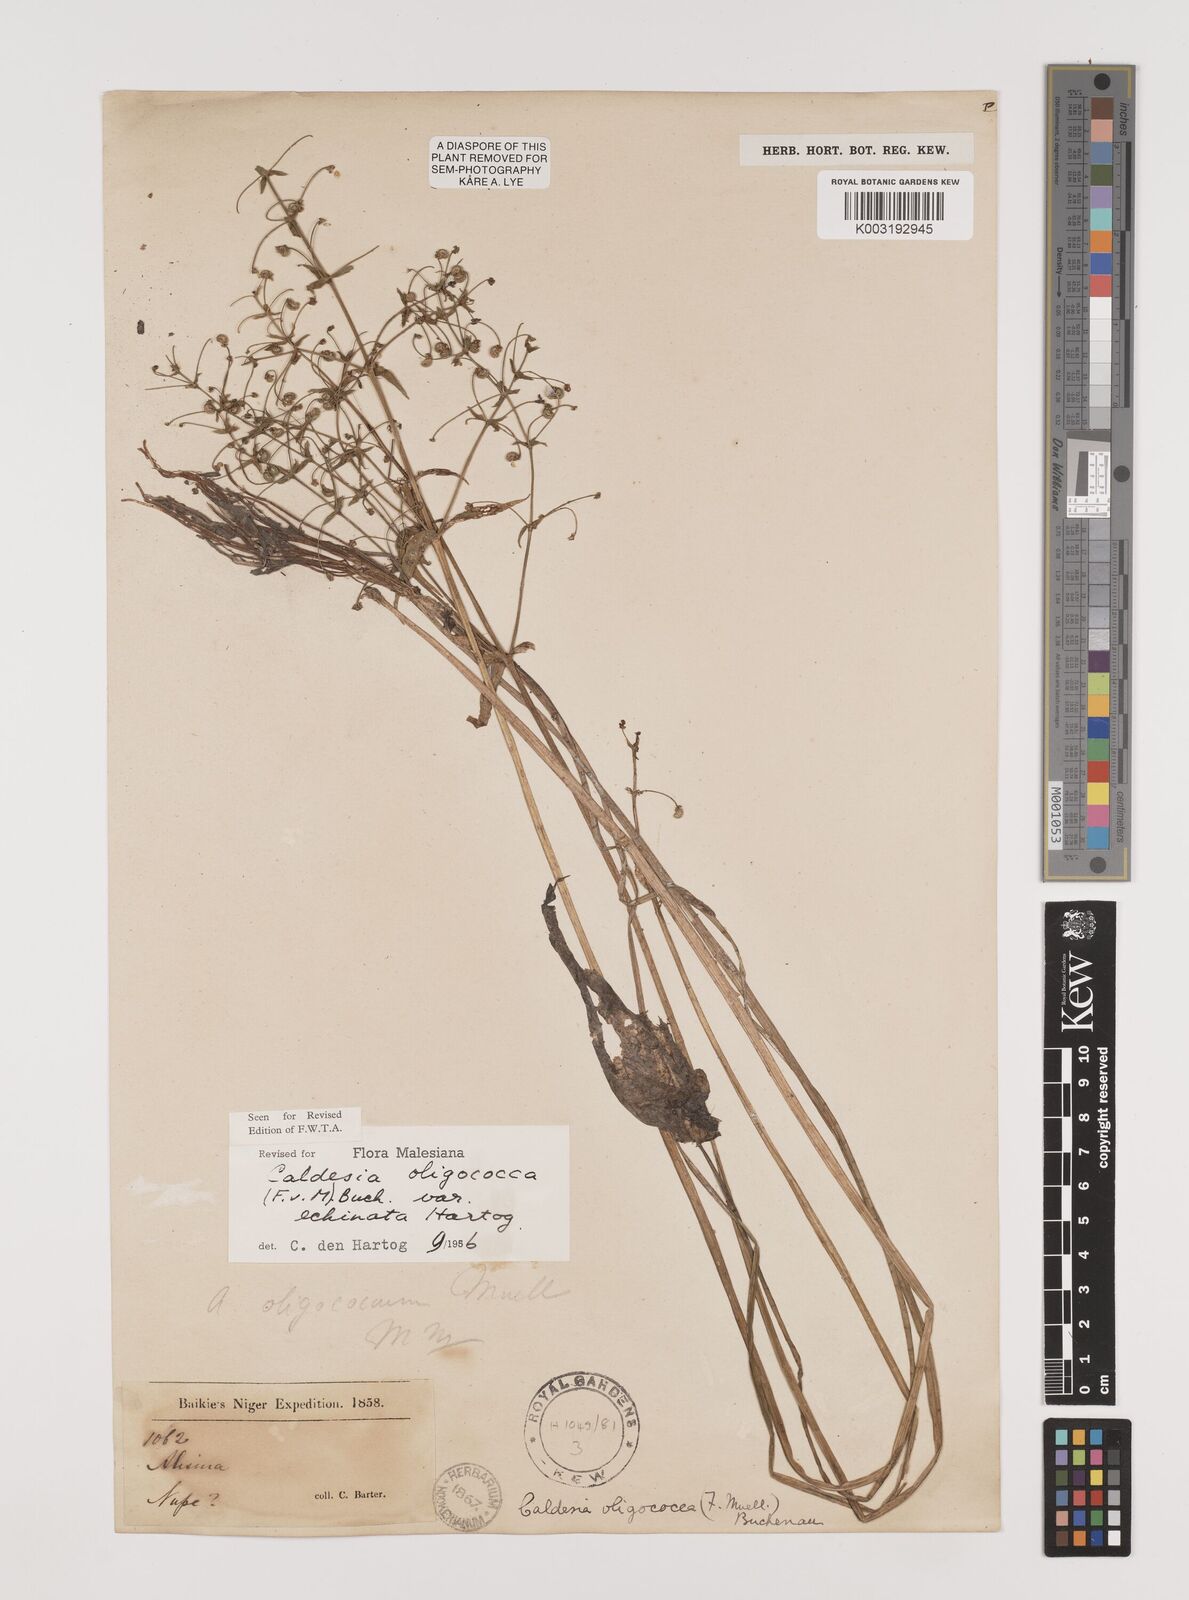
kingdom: Plantae
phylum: Tracheophyta
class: Liliopsida
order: Alismatales
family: Alismataceae
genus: Albidella
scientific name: Albidella glandulosa
